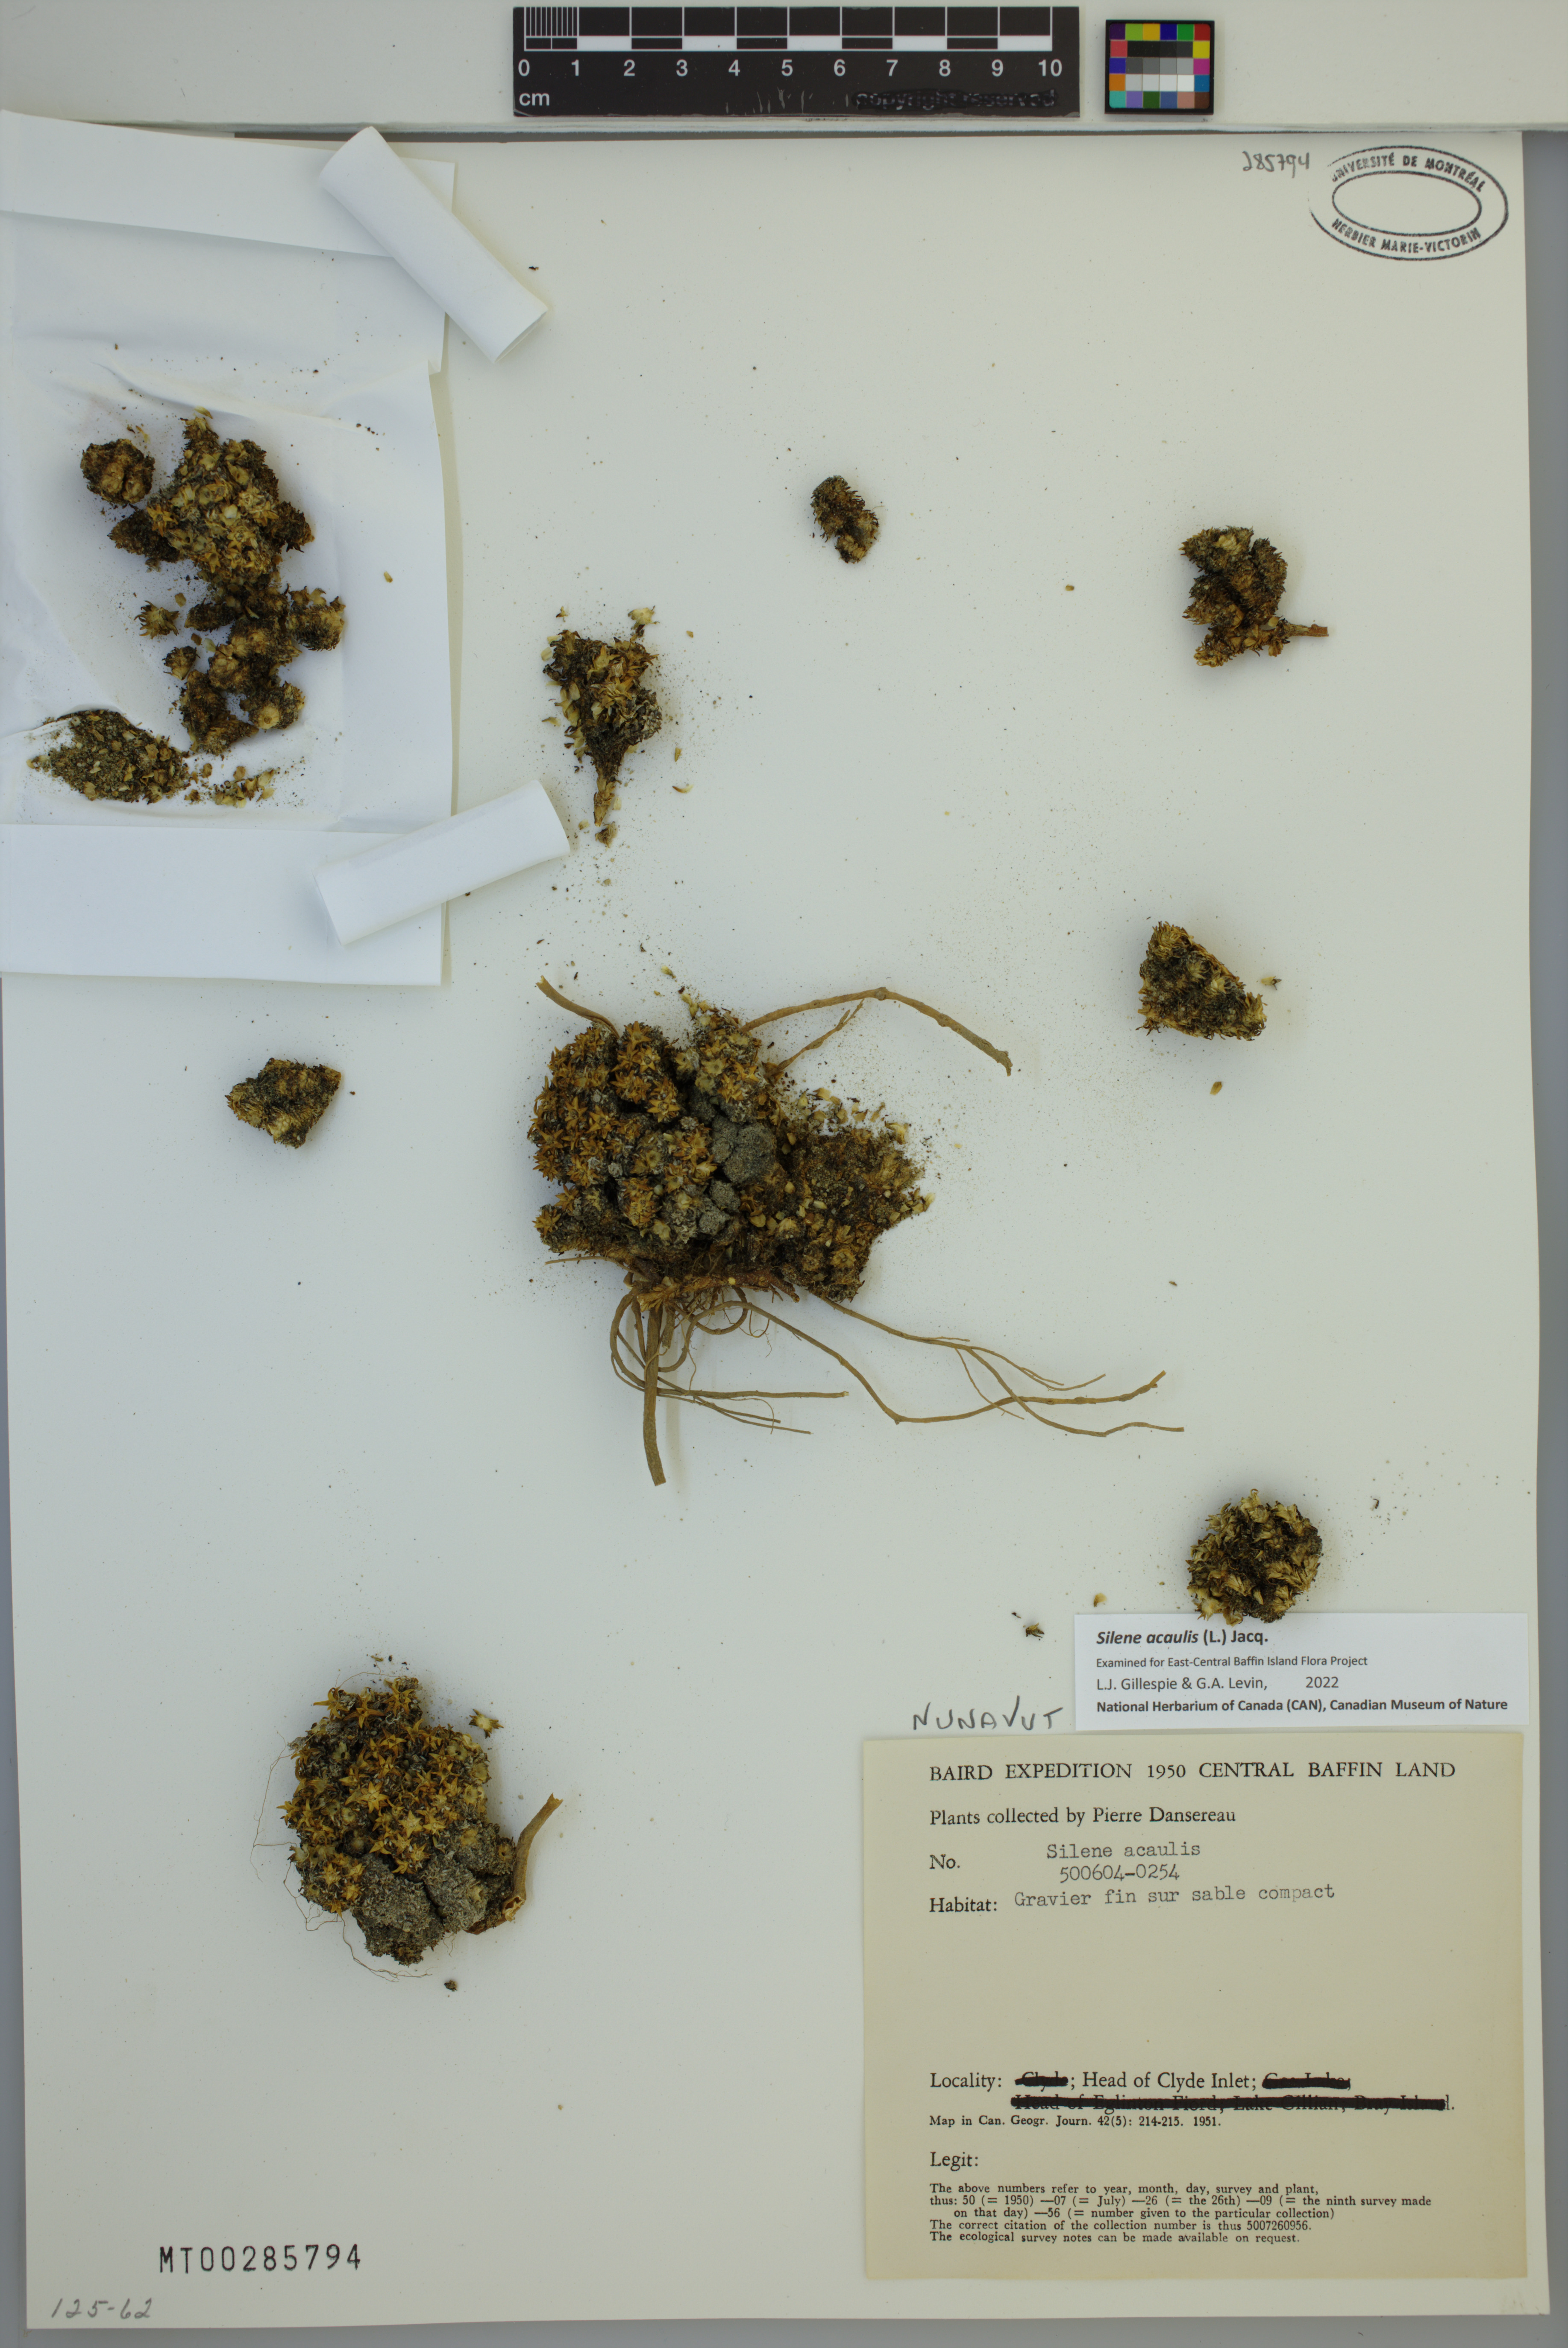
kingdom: Plantae
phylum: Tracheophyta
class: Magnoliopsida
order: Caryophyllales
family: Caryophyllaceae
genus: Silene
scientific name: Silene acaulis
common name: Moss campion
